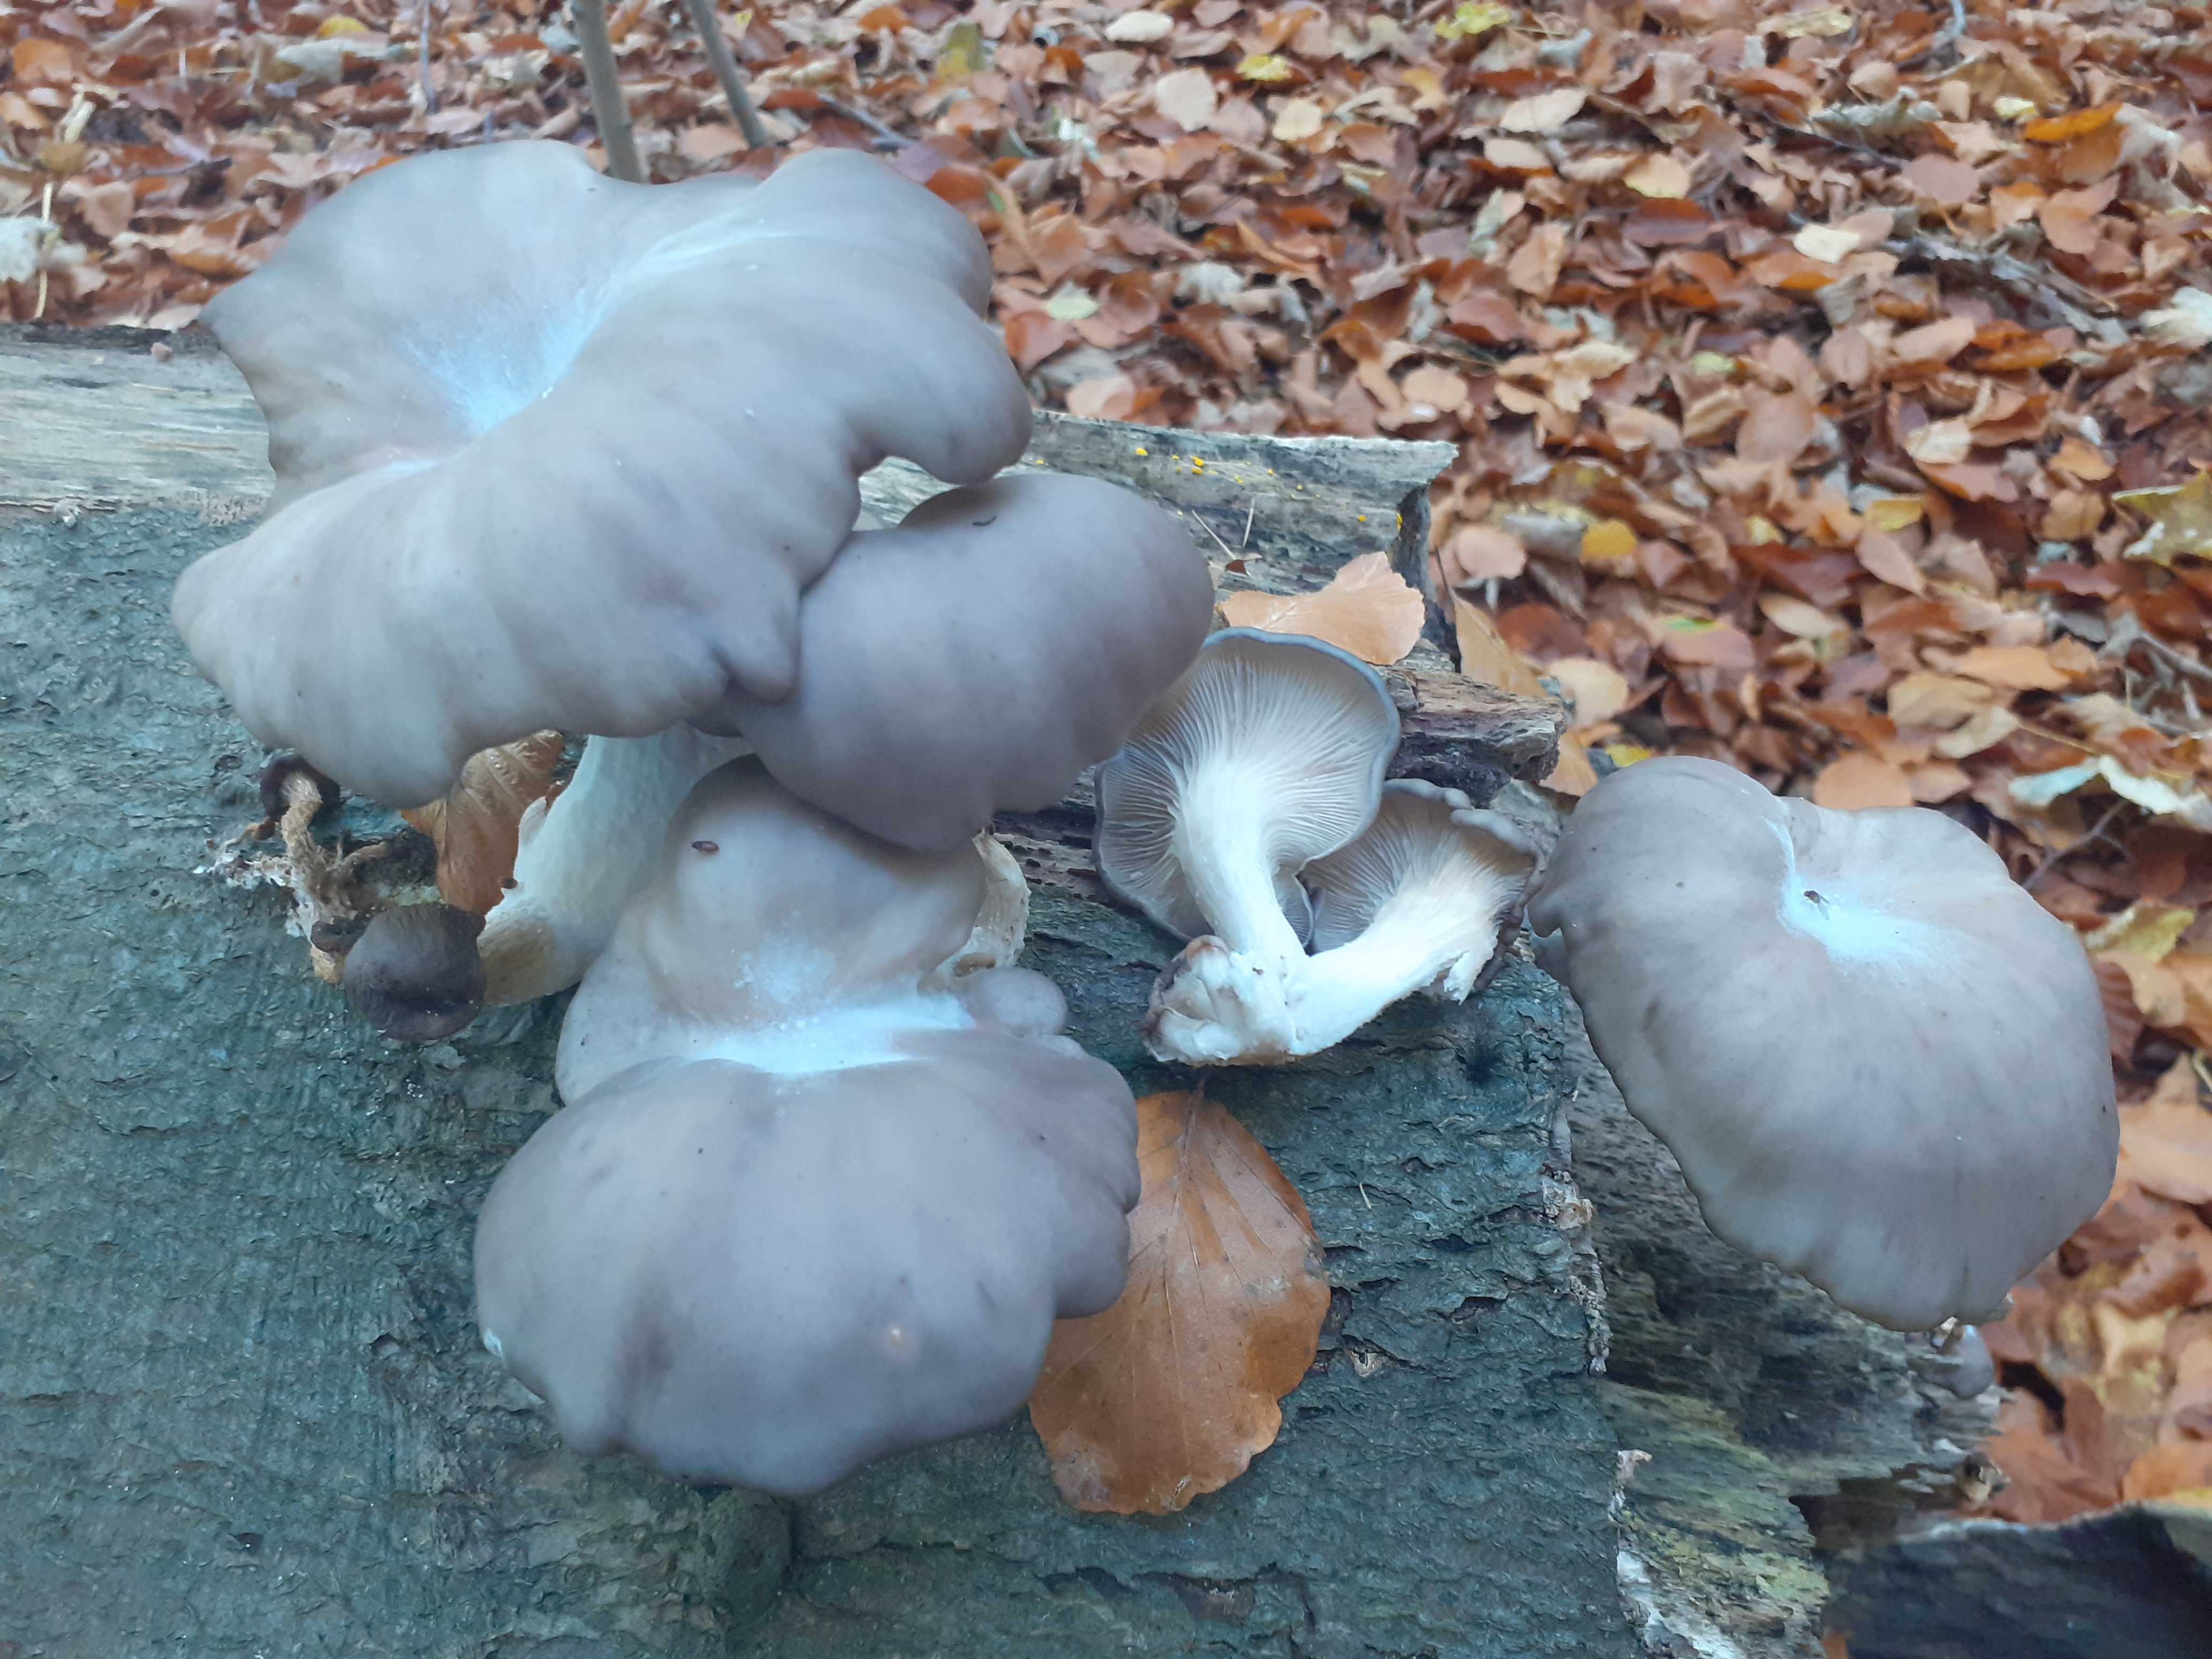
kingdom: Fungi
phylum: Basidiomycota
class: Agaricomycetes
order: Agaricales
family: Pleurotaceae
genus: Pleurotus
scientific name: Pleurotus ostreatus
